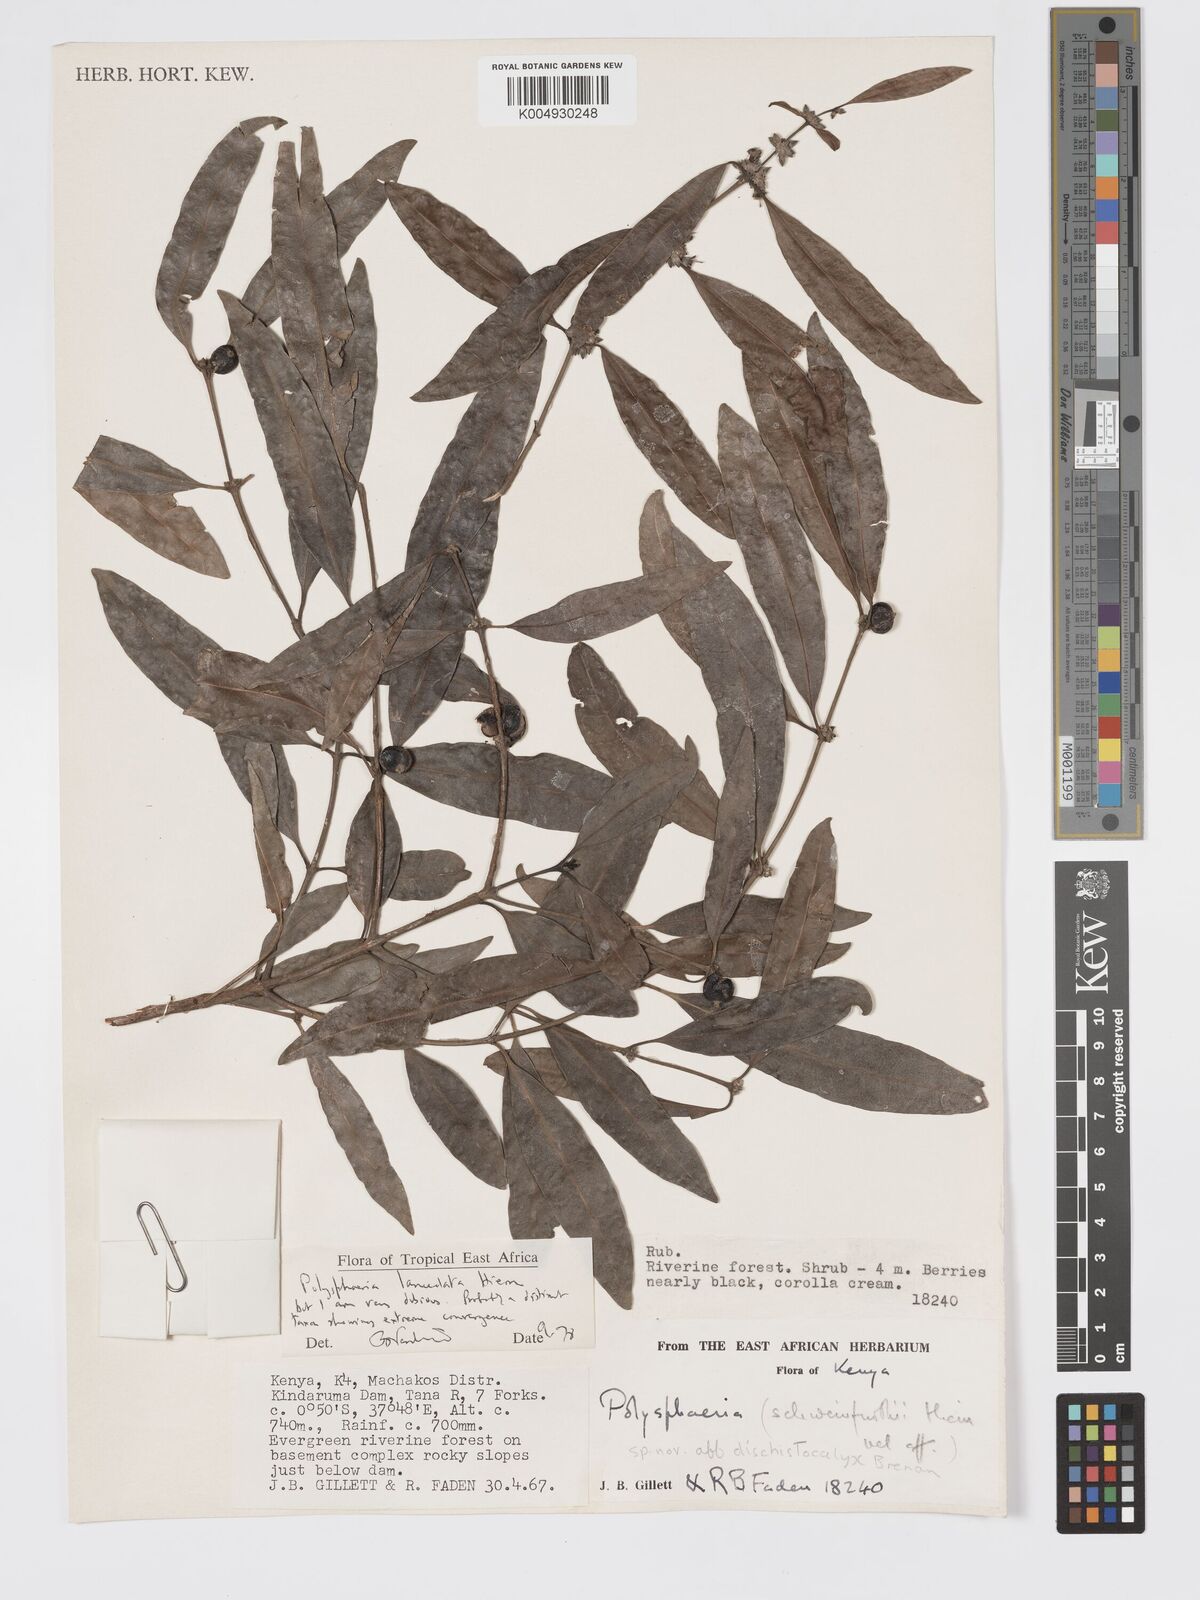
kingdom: Plantae
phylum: Tracheophyta
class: Magnoliopsida
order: Gentianales
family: Rubiaceae
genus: Polysphaeria
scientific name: Polysphaeria lanceolata
